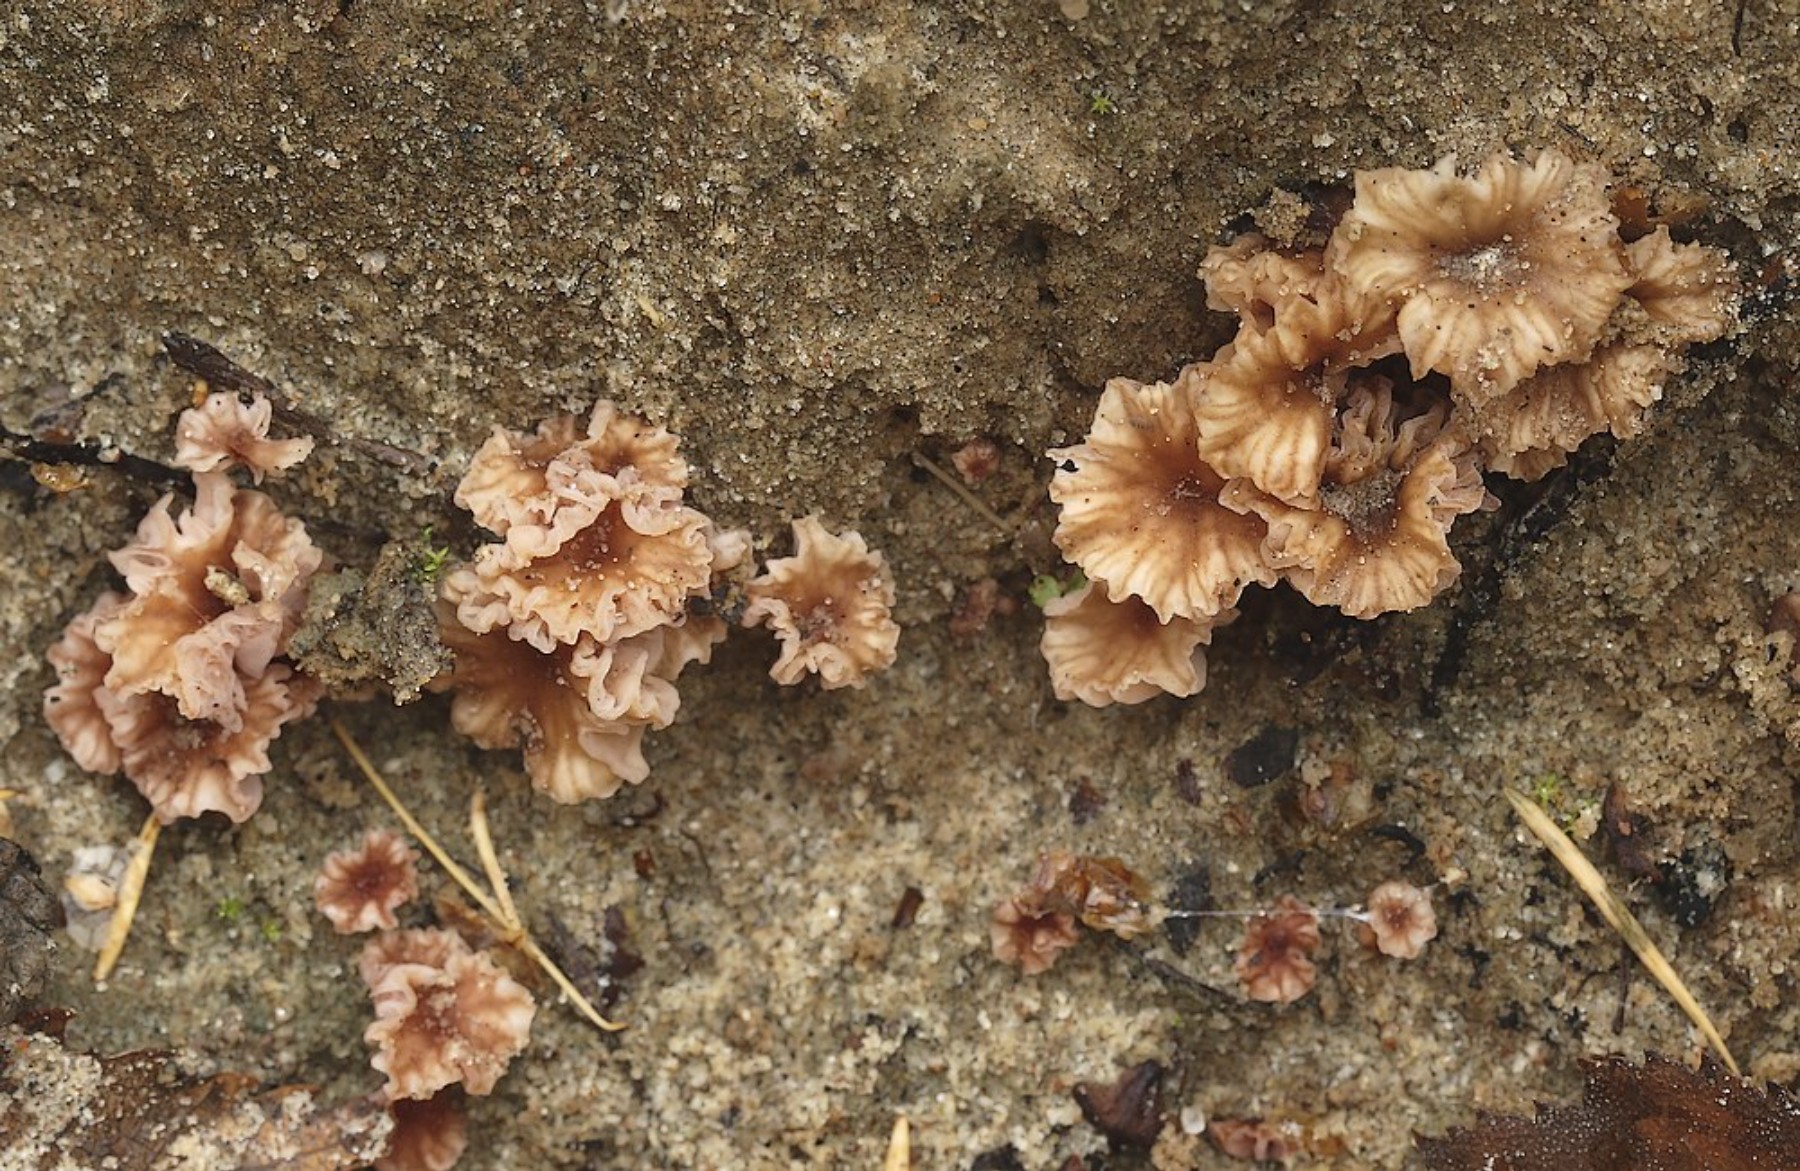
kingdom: Fungi
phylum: Basidiomycota
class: Agaricomycetes
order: Agaricales
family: Hydnangiaceae
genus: Laccaria
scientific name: Laccaria tortilis
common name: krybende ametysthat
